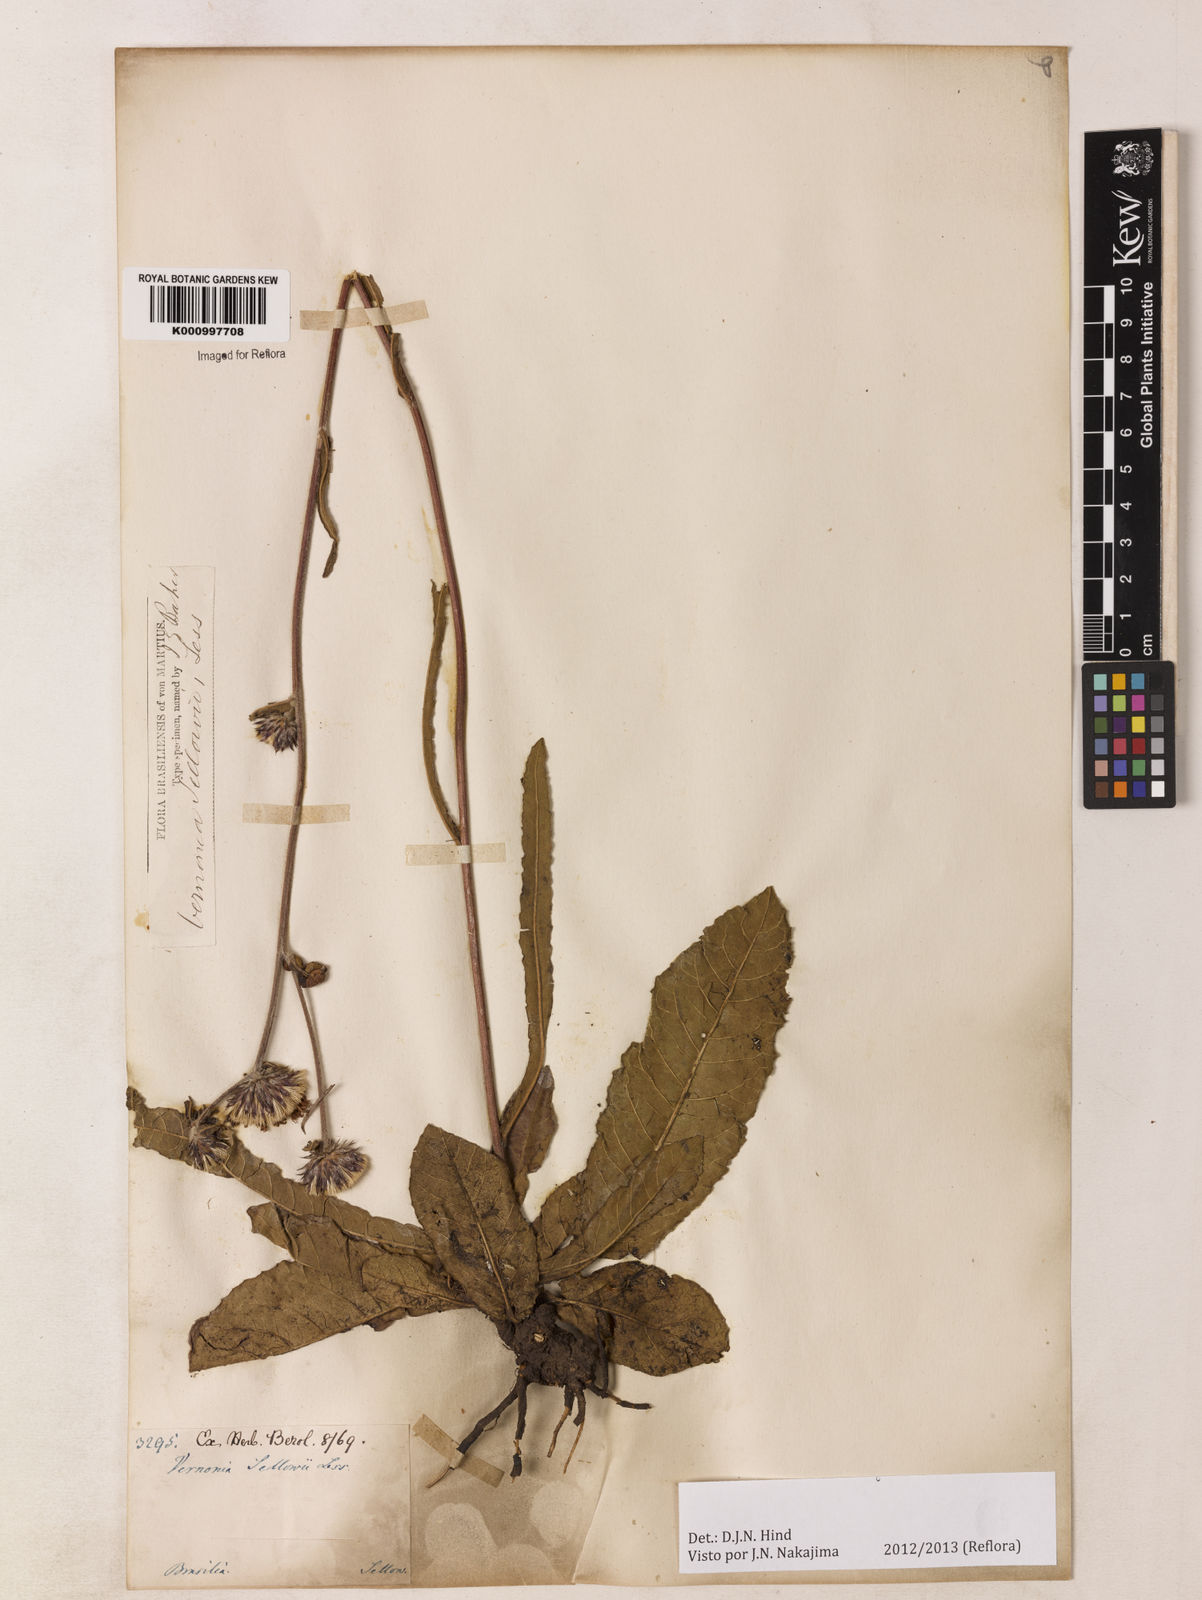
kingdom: Plantae
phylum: Tracheophyta
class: Magnoliopsida
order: Asterales
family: Asteraceae
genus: Lessingianthus
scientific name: Lessingianthus sellowii
